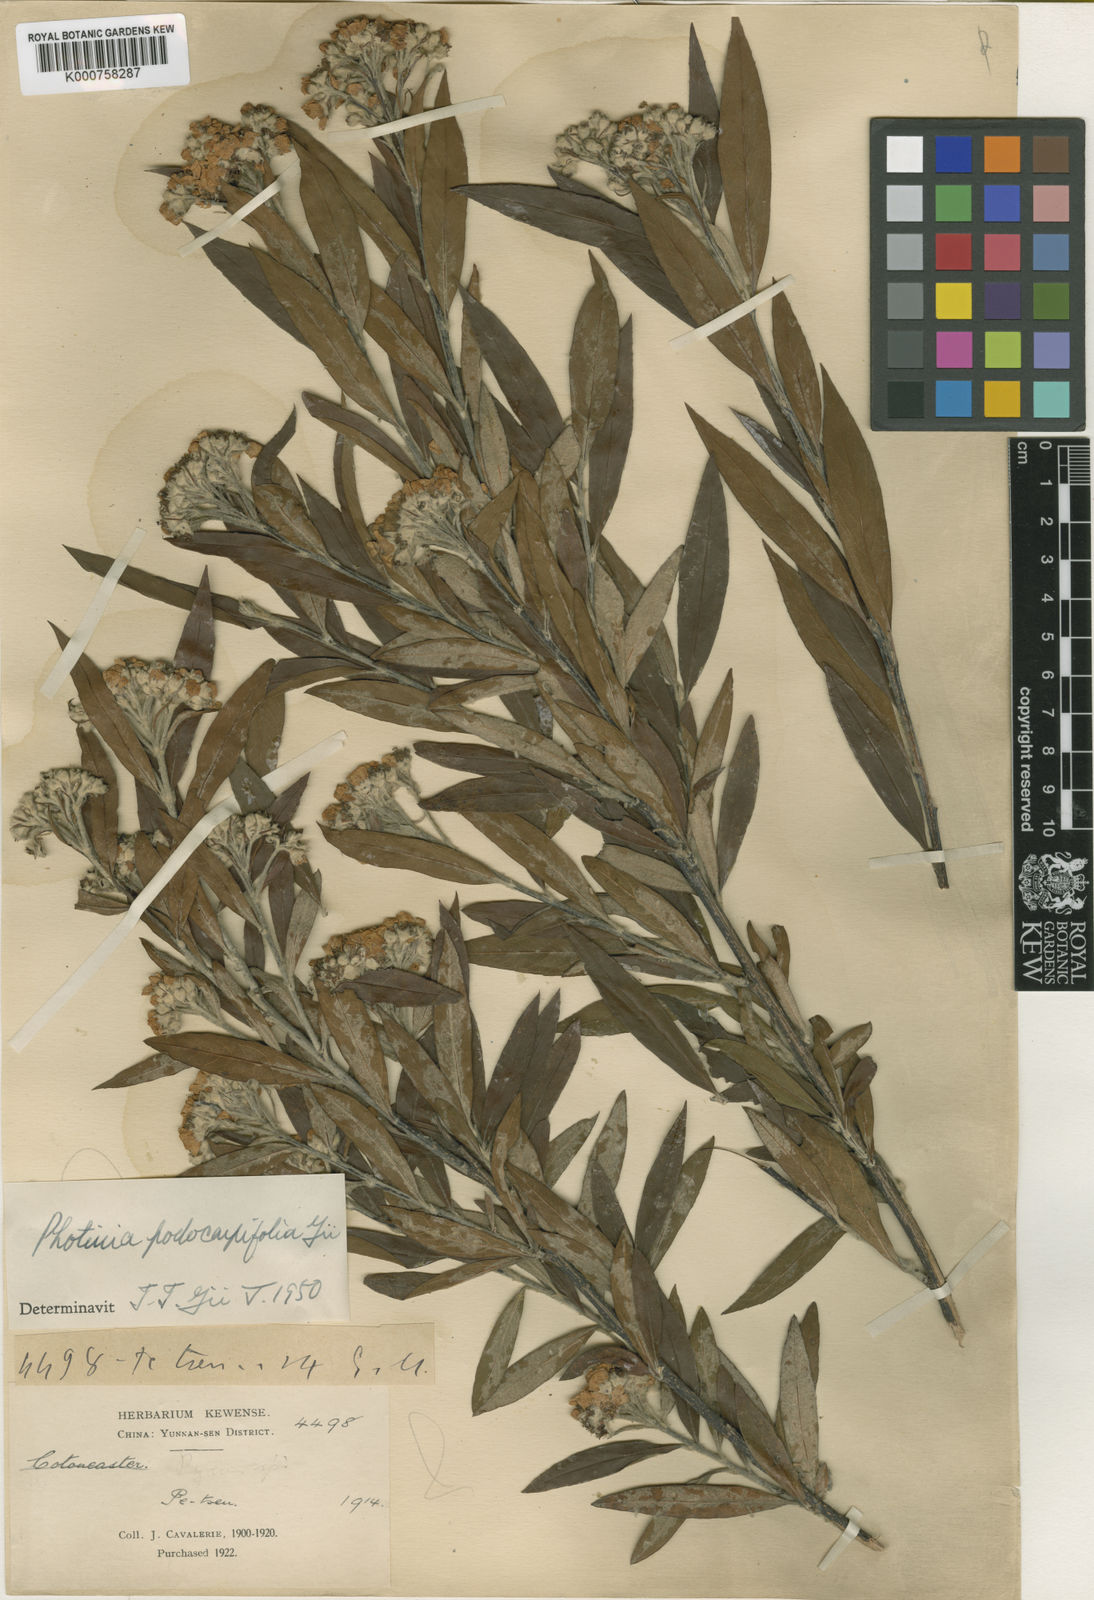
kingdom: Plantae
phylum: Tracheophyta
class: Magnoliopsida
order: Rosales
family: Rosaceae
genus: Pourthiaea
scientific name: Pourthiaea podocarpifolia
